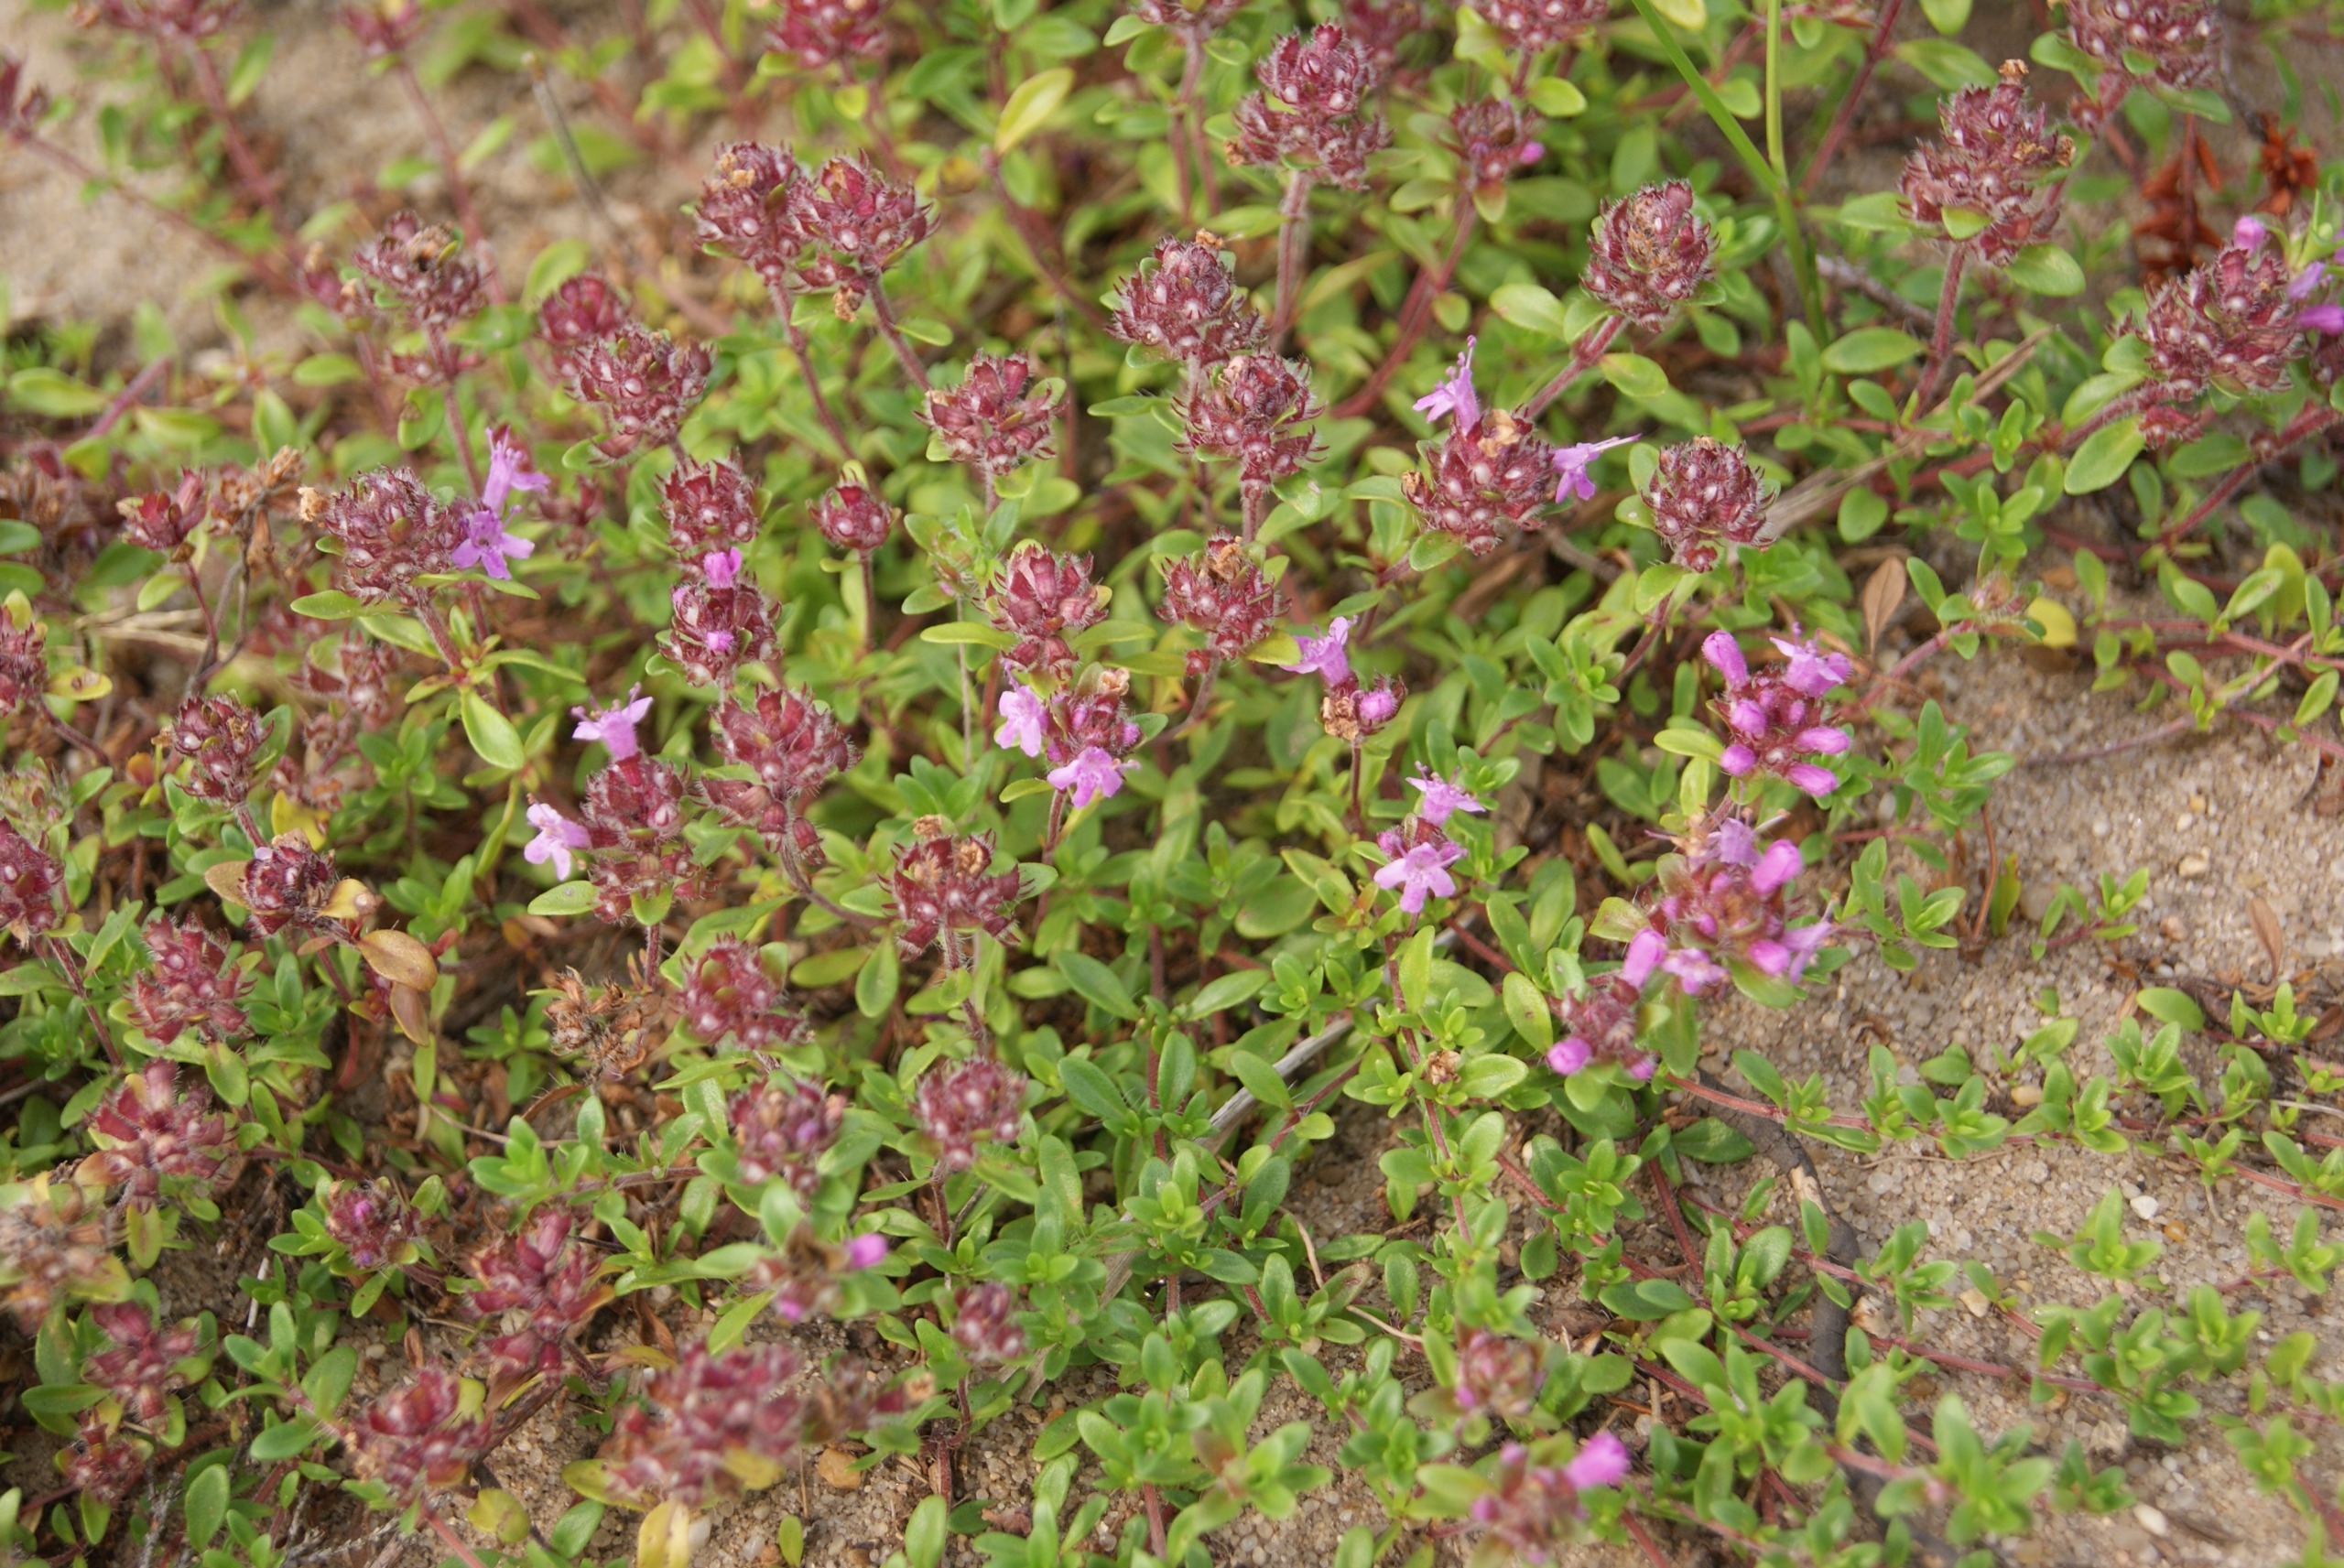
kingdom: Plantae
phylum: Tracheophyta
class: Magnoliopsida
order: Lamiales
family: Lamiaceae
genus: Thymus
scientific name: Thymus serpyllum
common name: Smalbladet timian
